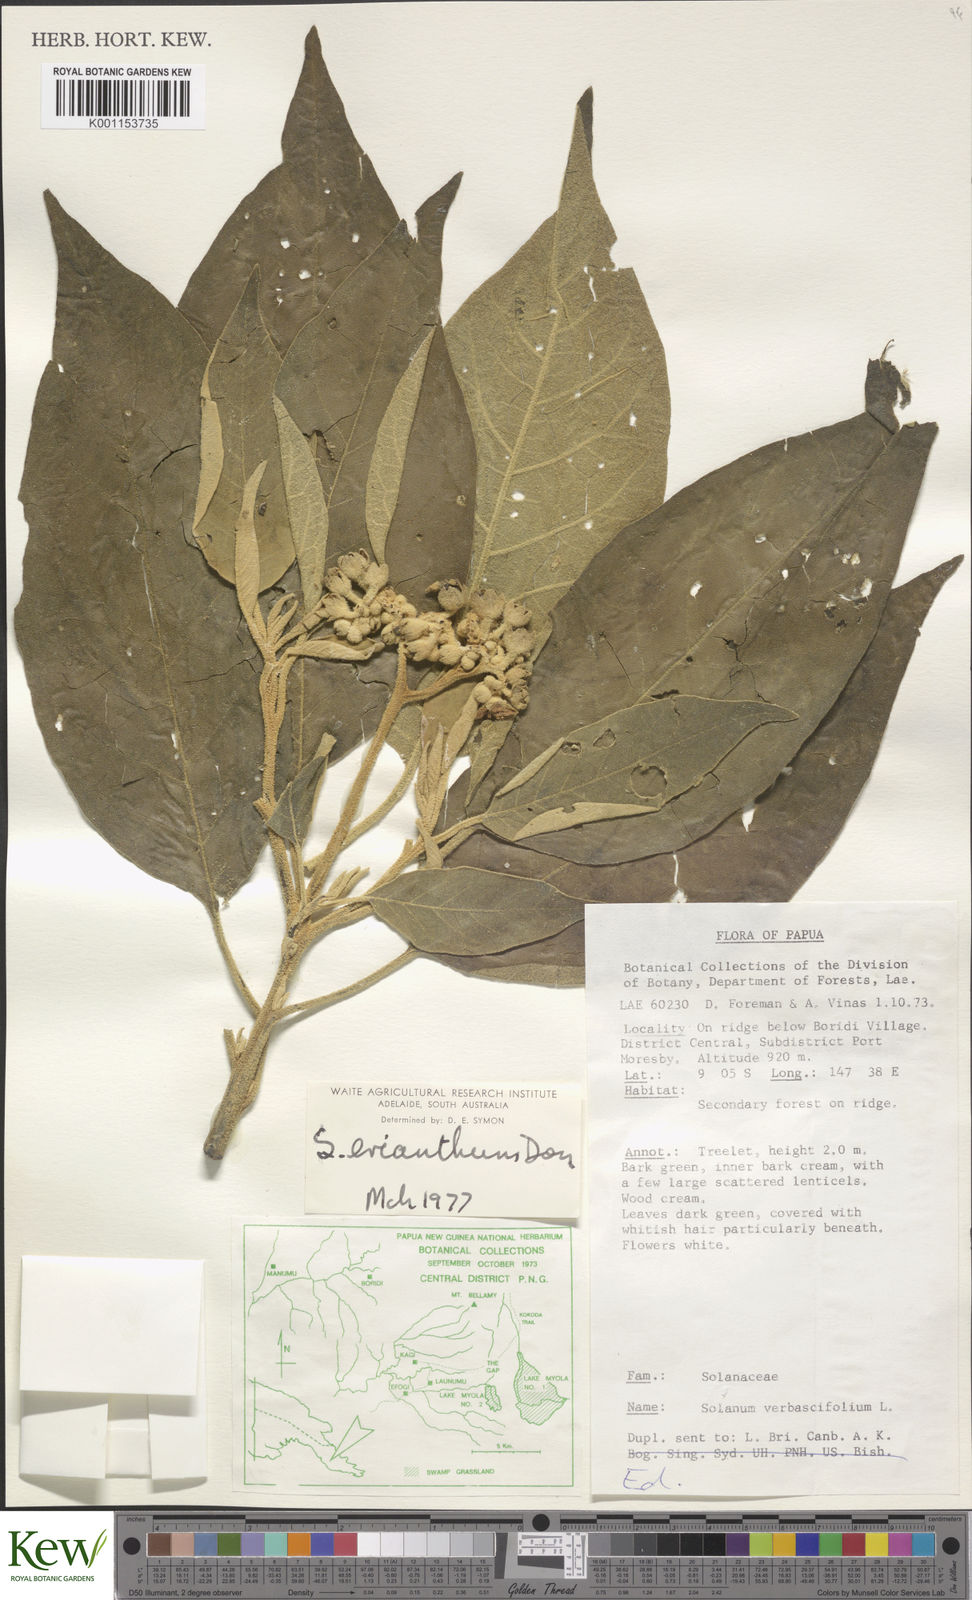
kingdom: Plantae
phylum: Tracheophyta
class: Magnoliopsida
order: Solanales
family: Solanaceae
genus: Solanum
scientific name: Solanum erianthum
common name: Tobacco-tree
